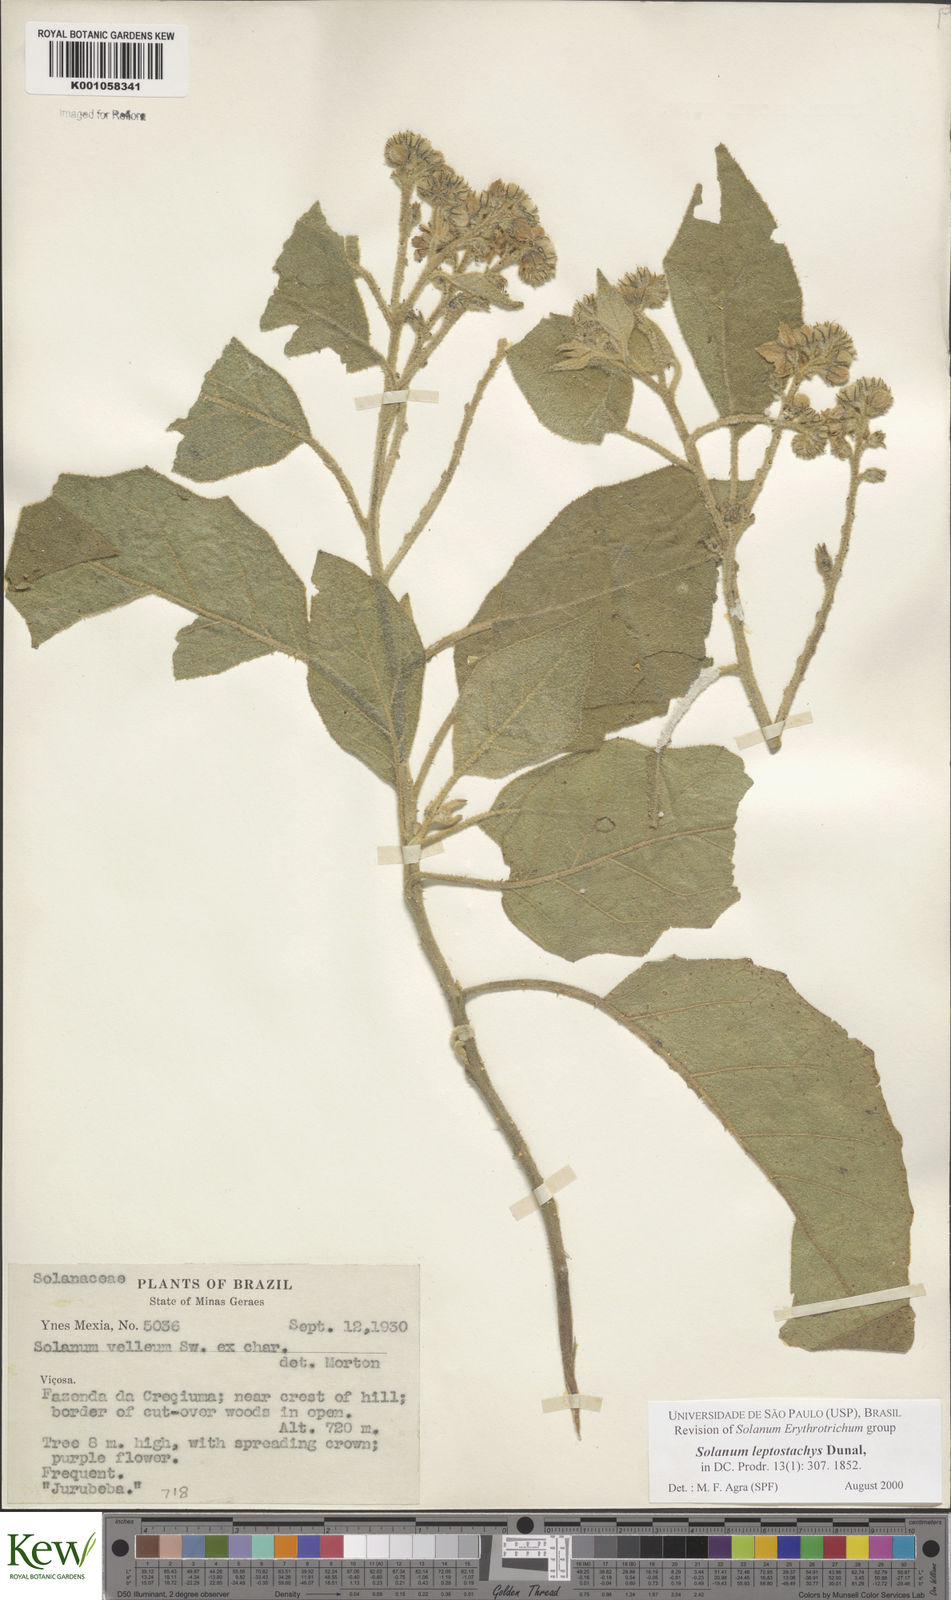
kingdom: Plantae
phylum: Tracheophyta
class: Magnoliopsida
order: Solanales
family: Solanaceae
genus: Solanum
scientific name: Solanum leptostachys
